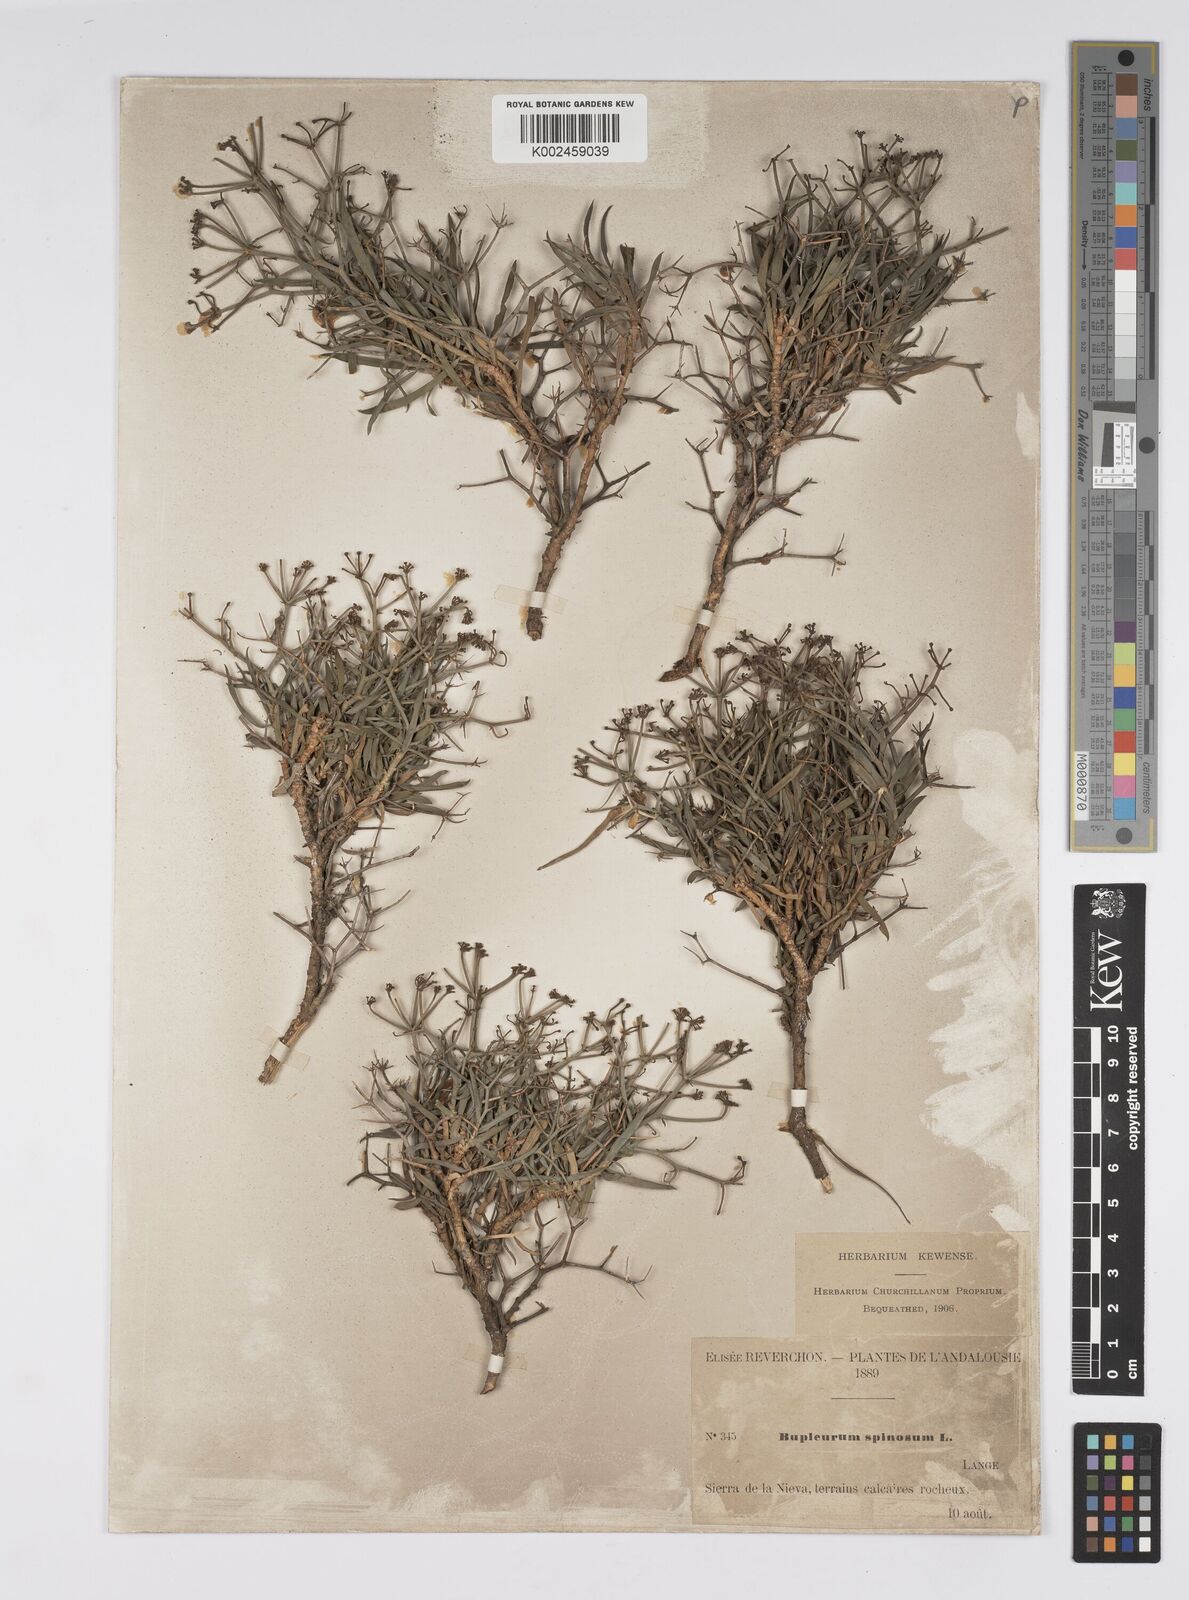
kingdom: Plantae
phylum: Tracheophyta
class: Magnoliopsida
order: Apiales
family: Apiaceae
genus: Bupleurum
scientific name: Bupleurum fruticescens
